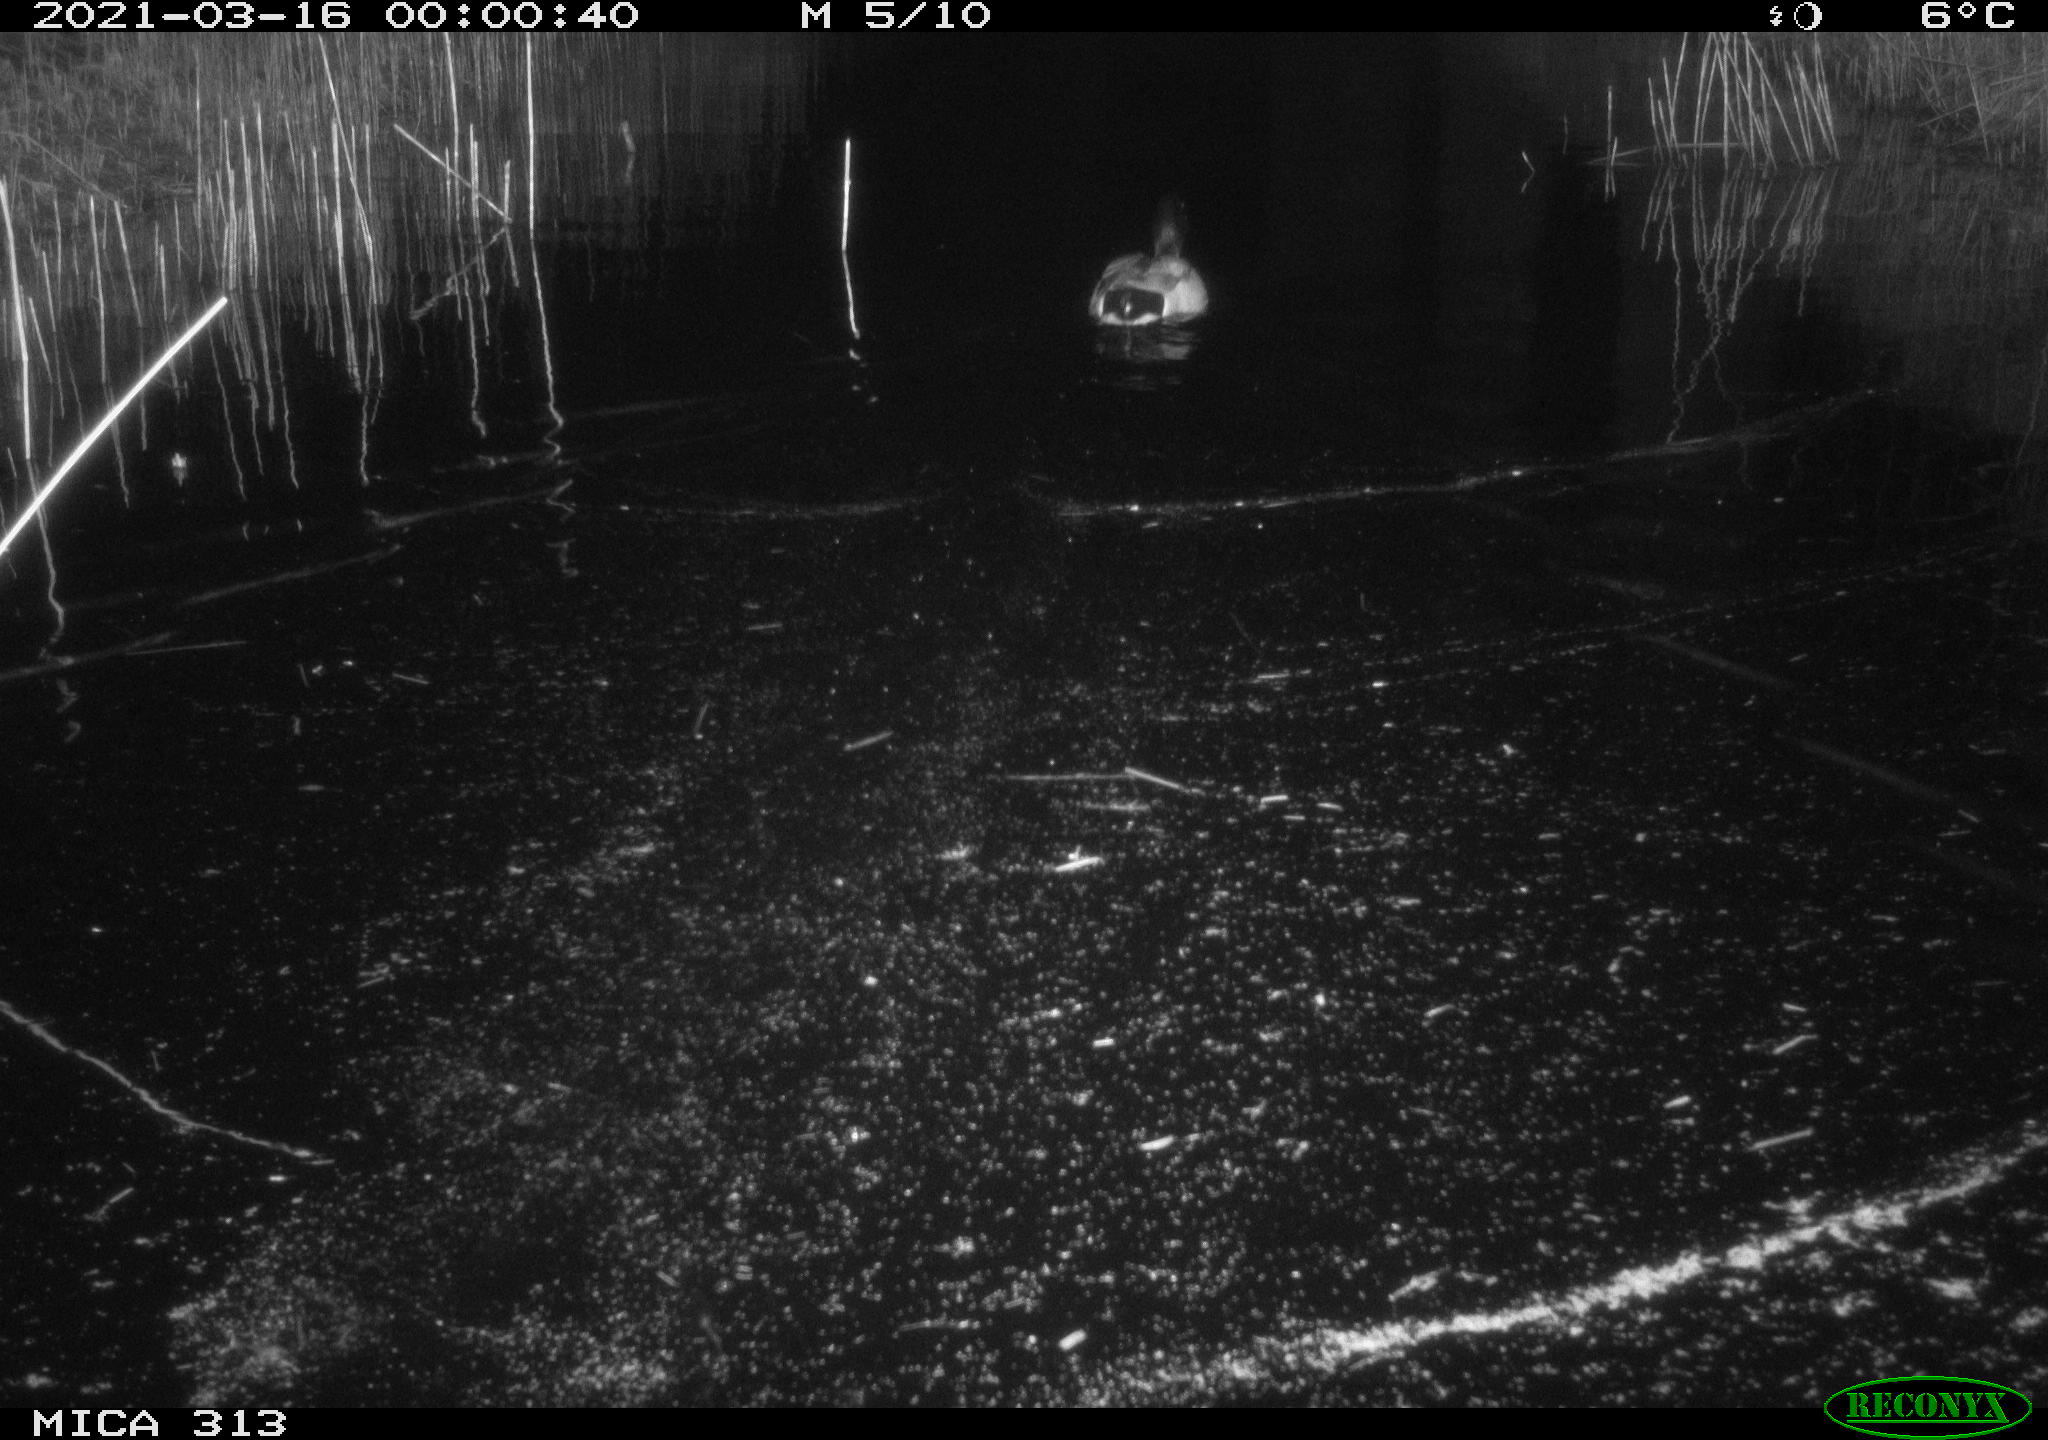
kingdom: Animalia
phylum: Chordata
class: Aves
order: Anseriformes
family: Anatidae
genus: Anas
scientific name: Anas platyrhynchos
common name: Mallard
